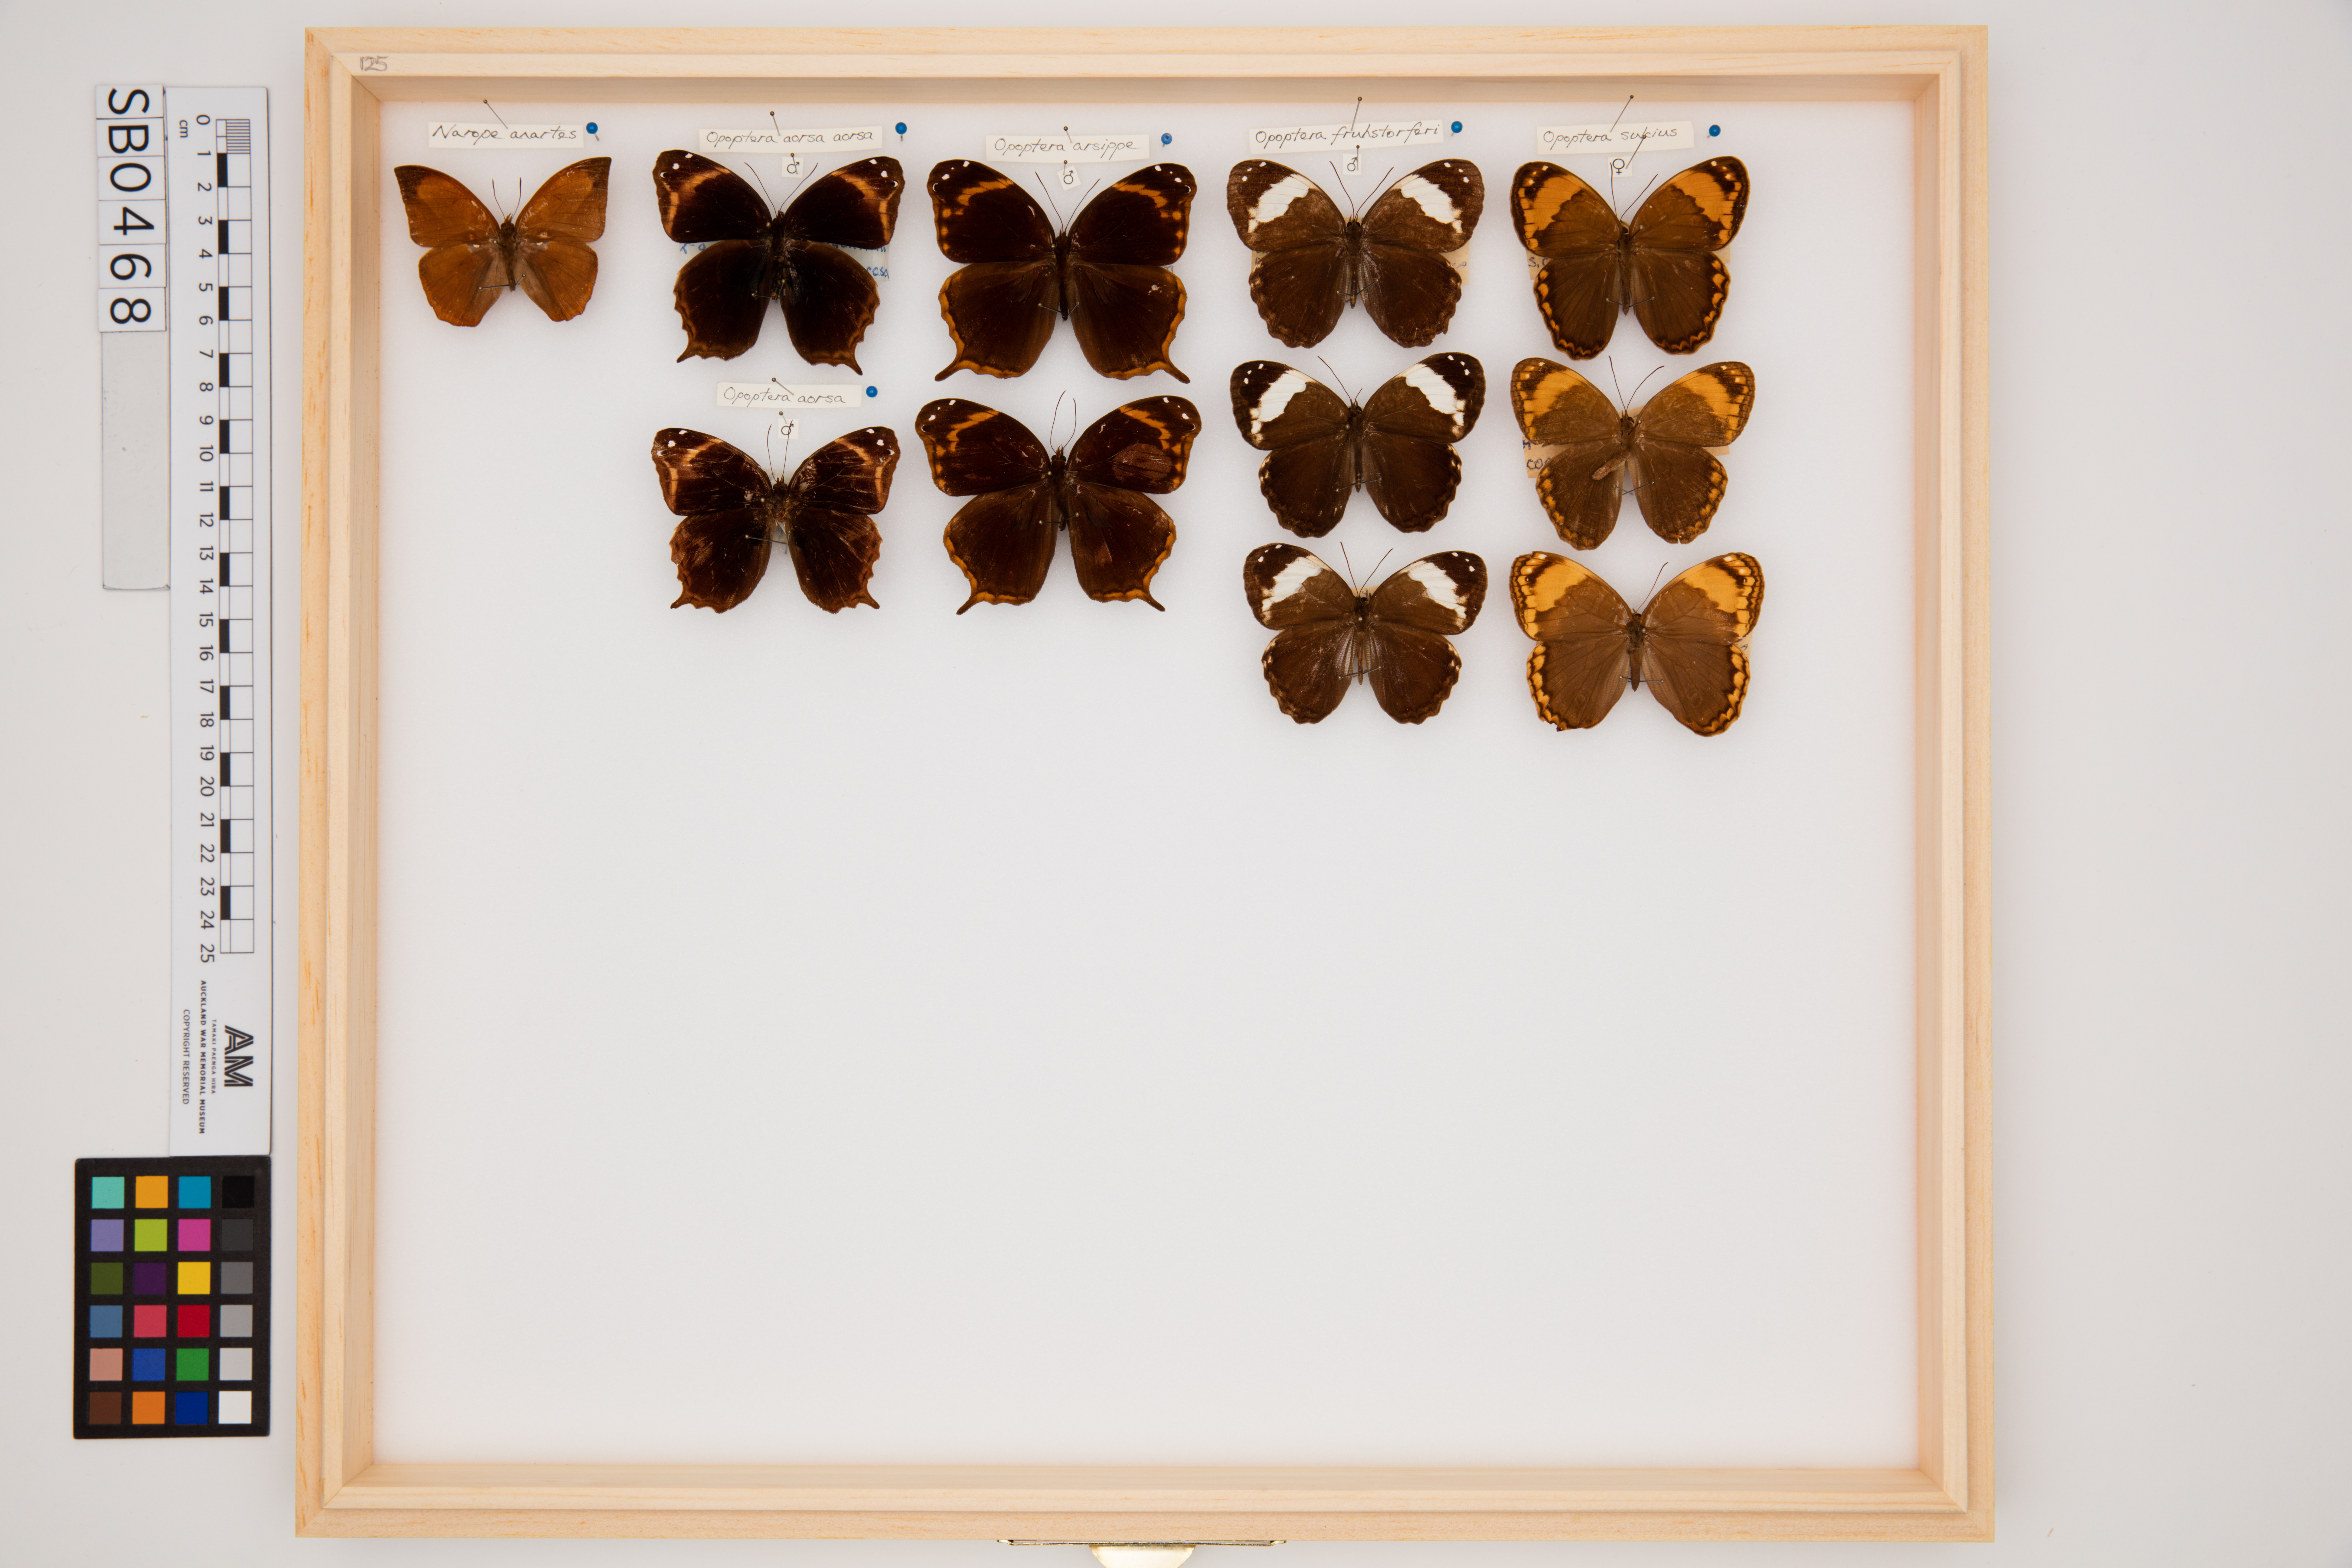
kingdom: Animalia
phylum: Arthropoda
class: Insecta
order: Lepidoptera
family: Nymphalidae
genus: Opoptera
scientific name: Opoptera arsippe
